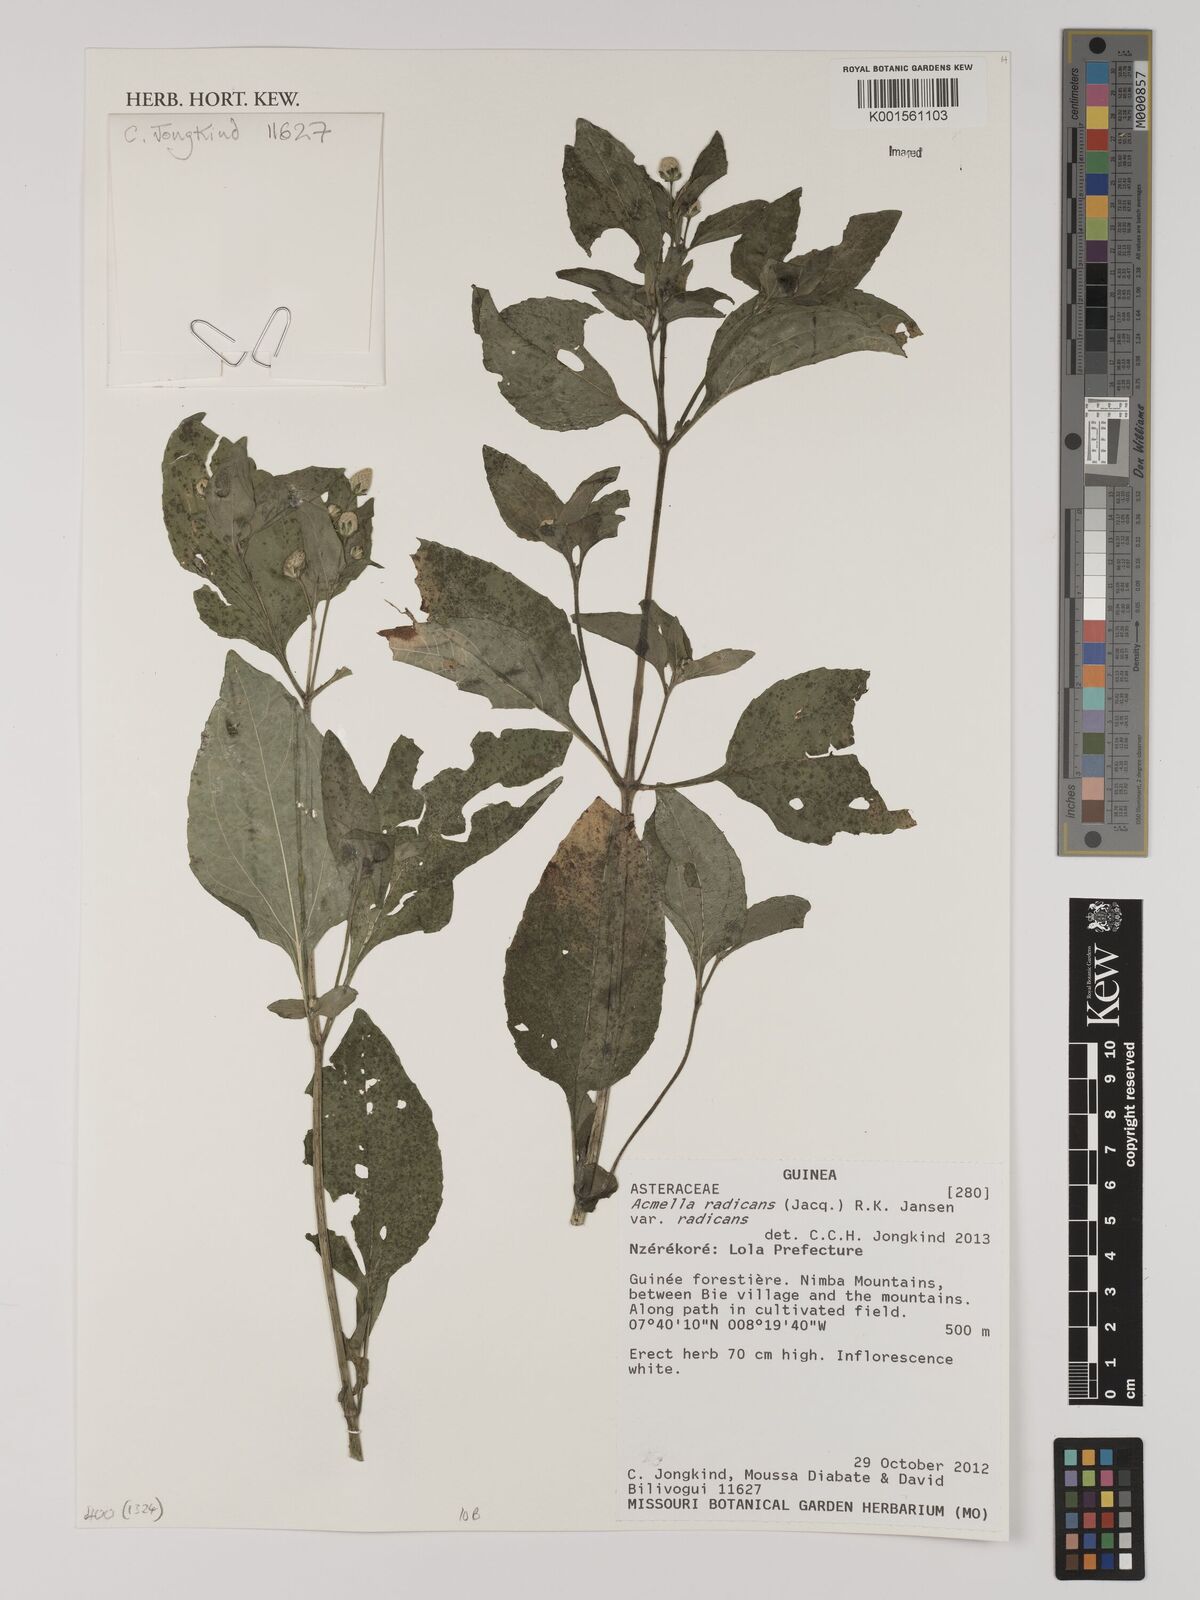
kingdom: Plantae
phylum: Tracheophyta
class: Magnoliopsida
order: Asterales
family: Asteraceae
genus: Acmella
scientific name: Acmella radicans
